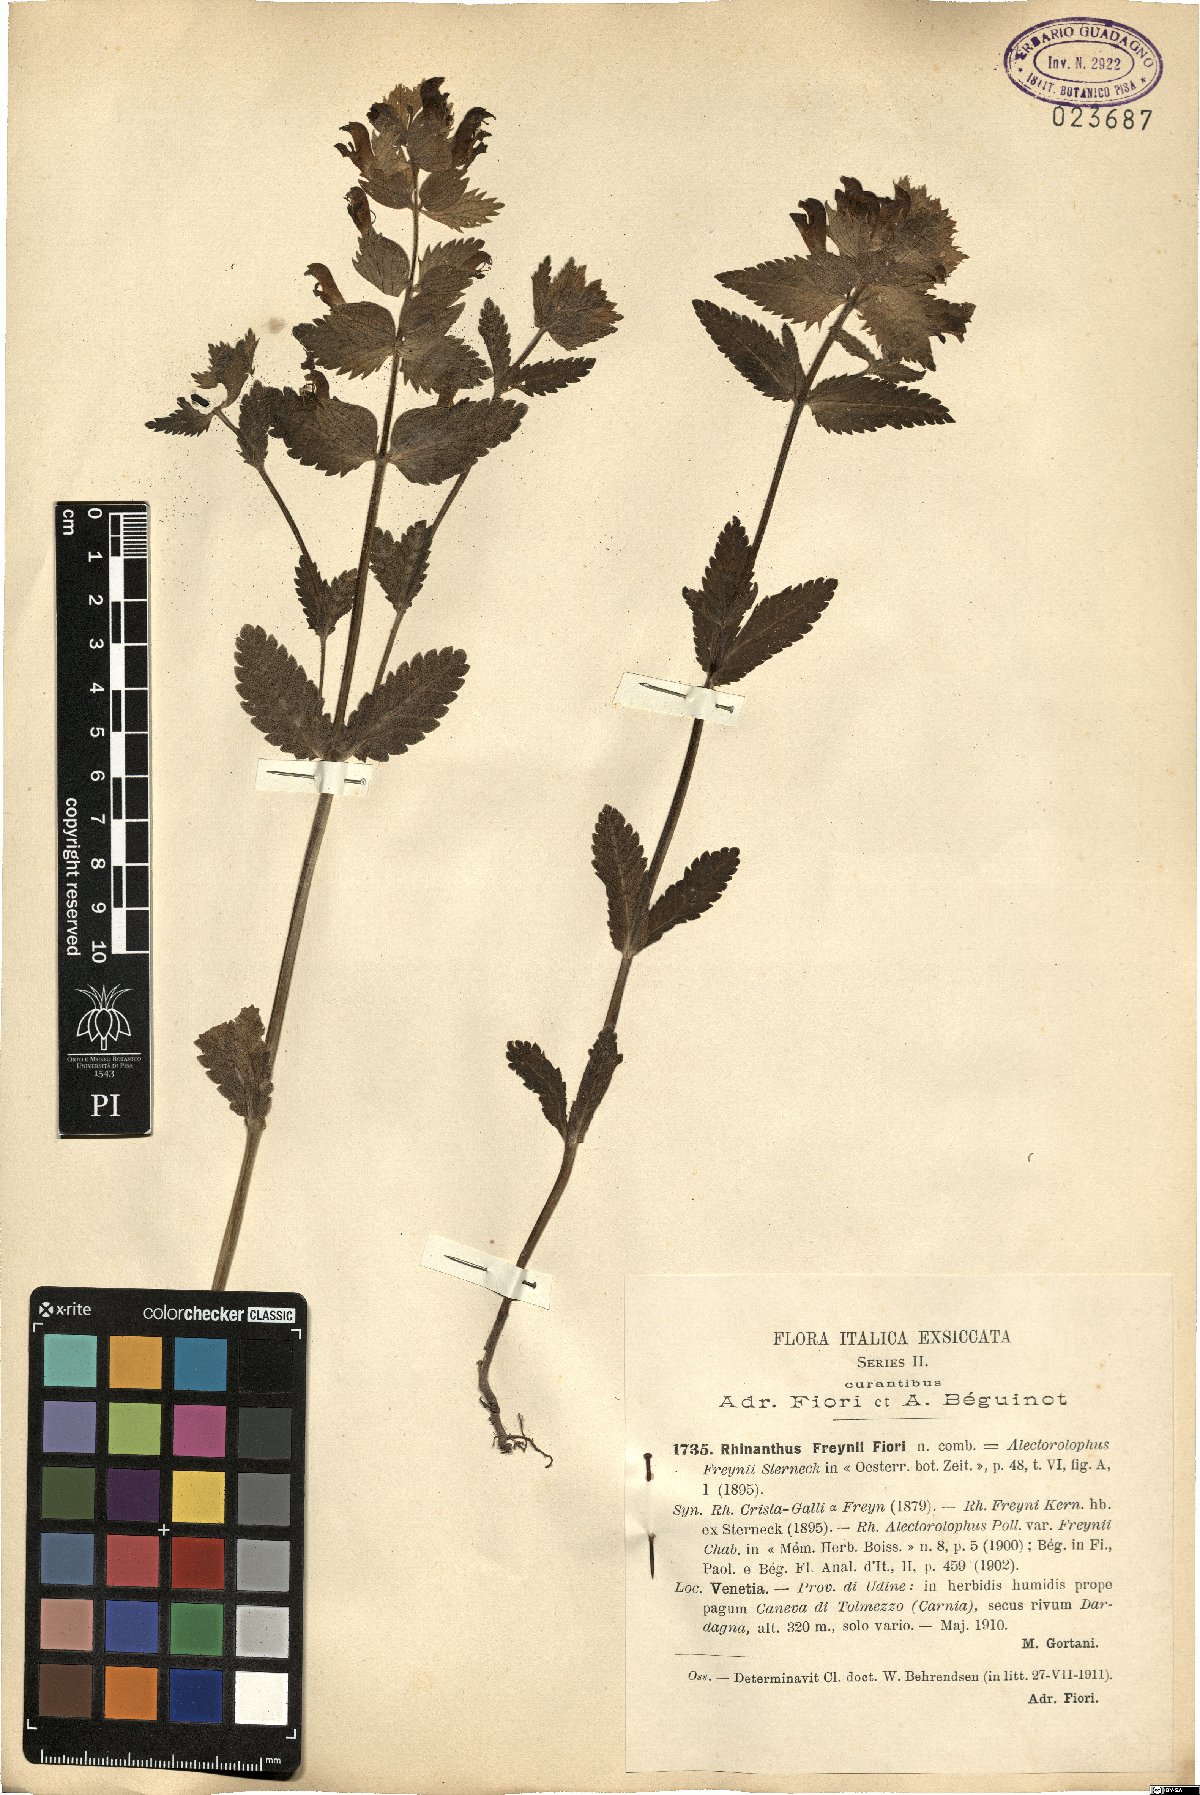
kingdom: Plantae
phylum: Tracheophyta
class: Magnoliopsida
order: Lamiales
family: Orobanchaceae
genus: Rhinanthus
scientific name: Rhinanthus freynii
